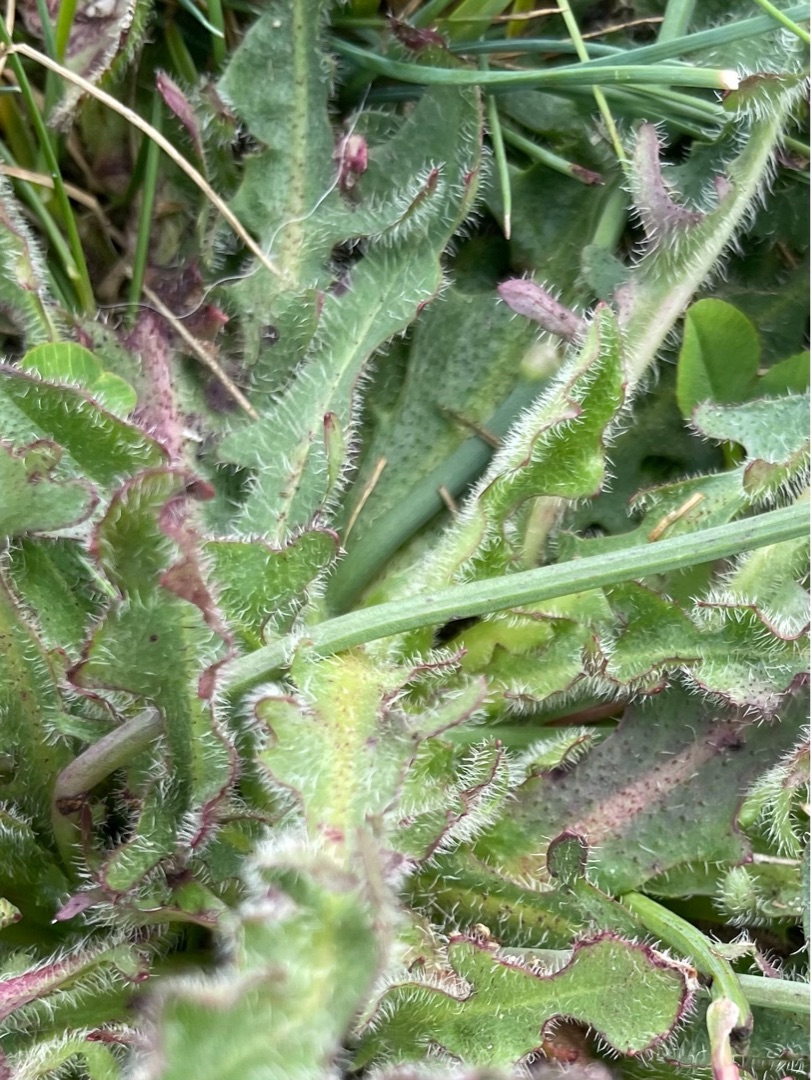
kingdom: Plantae
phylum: Tracheophyta
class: Magnoliopsida
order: Asterales
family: Asteraceae
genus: Leontodon
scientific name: Leontodon hispidus
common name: Stivhåret borst
